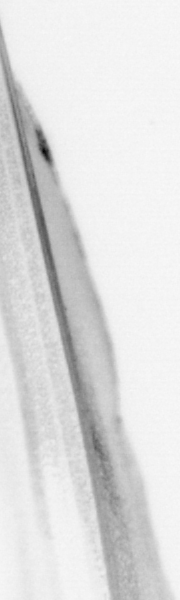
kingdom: Animalia
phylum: Chordata
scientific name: Chordata
